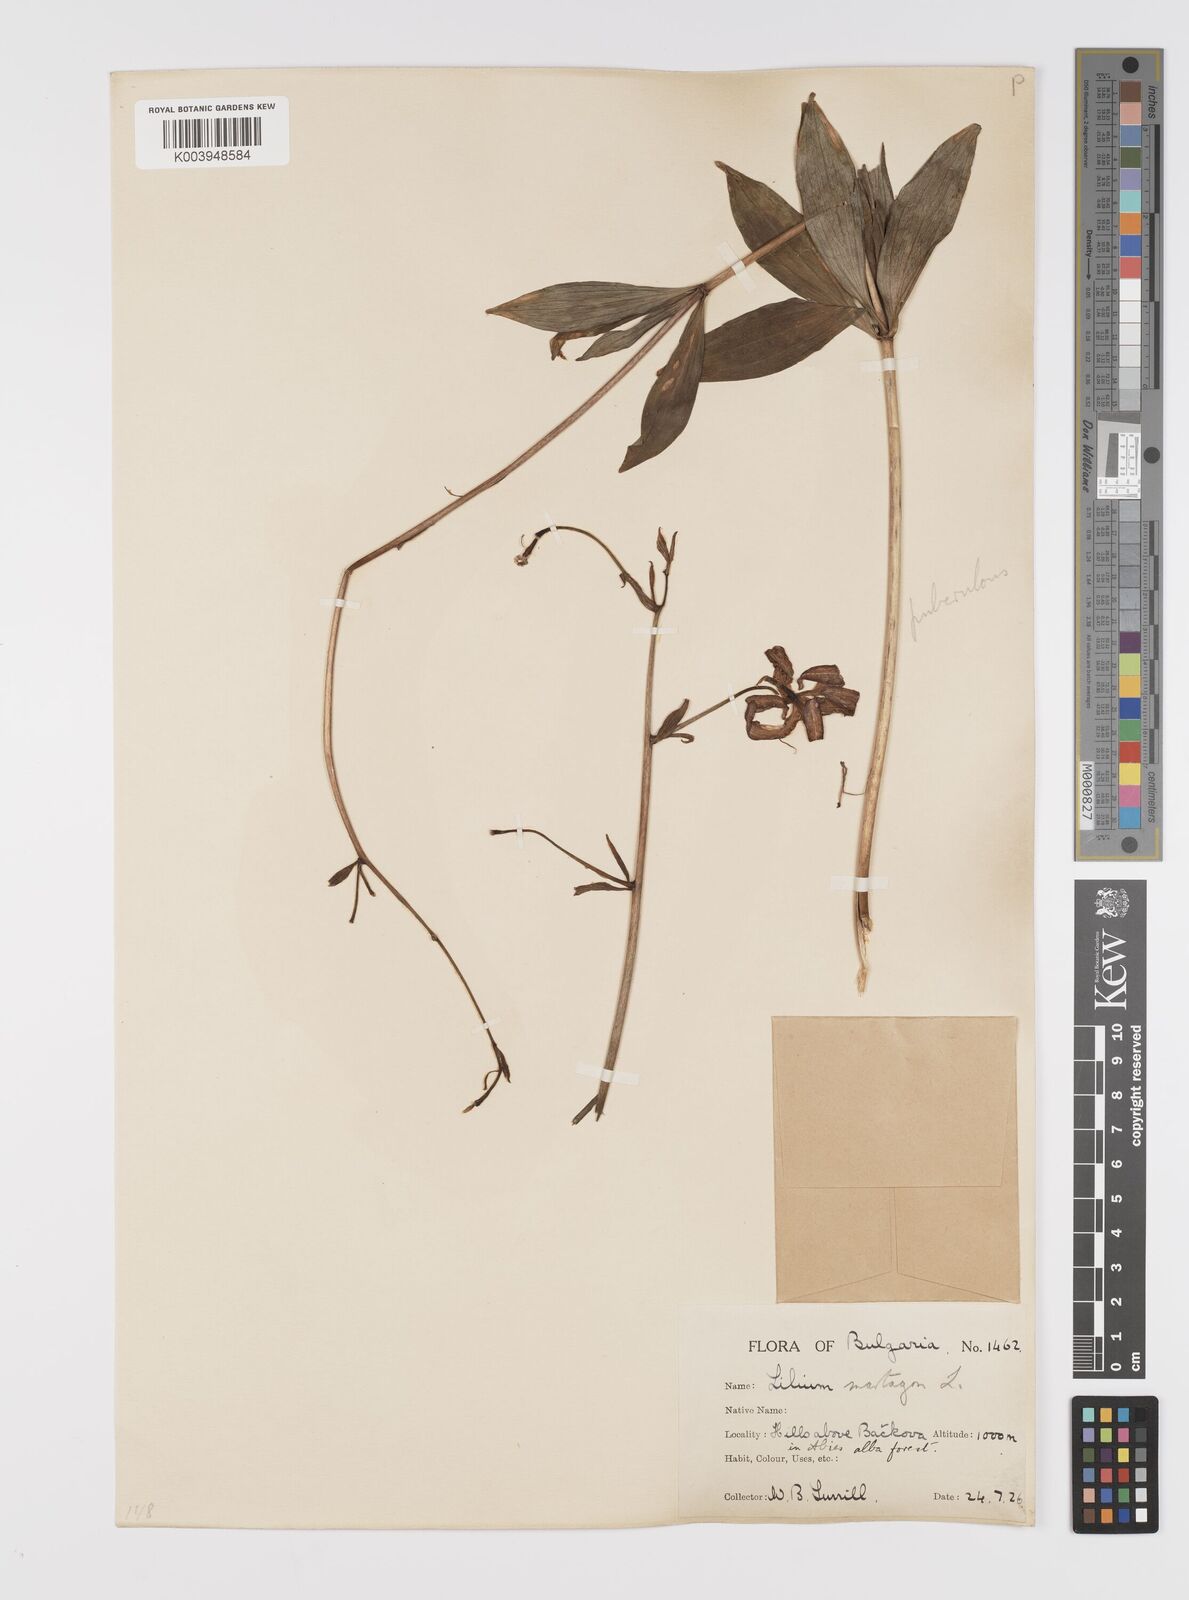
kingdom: Plantae
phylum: Tracheophyta
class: Liliopsida
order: Liliales
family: Liliaceae
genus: Lilium
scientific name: Lilium martagon
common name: Martagon lily
